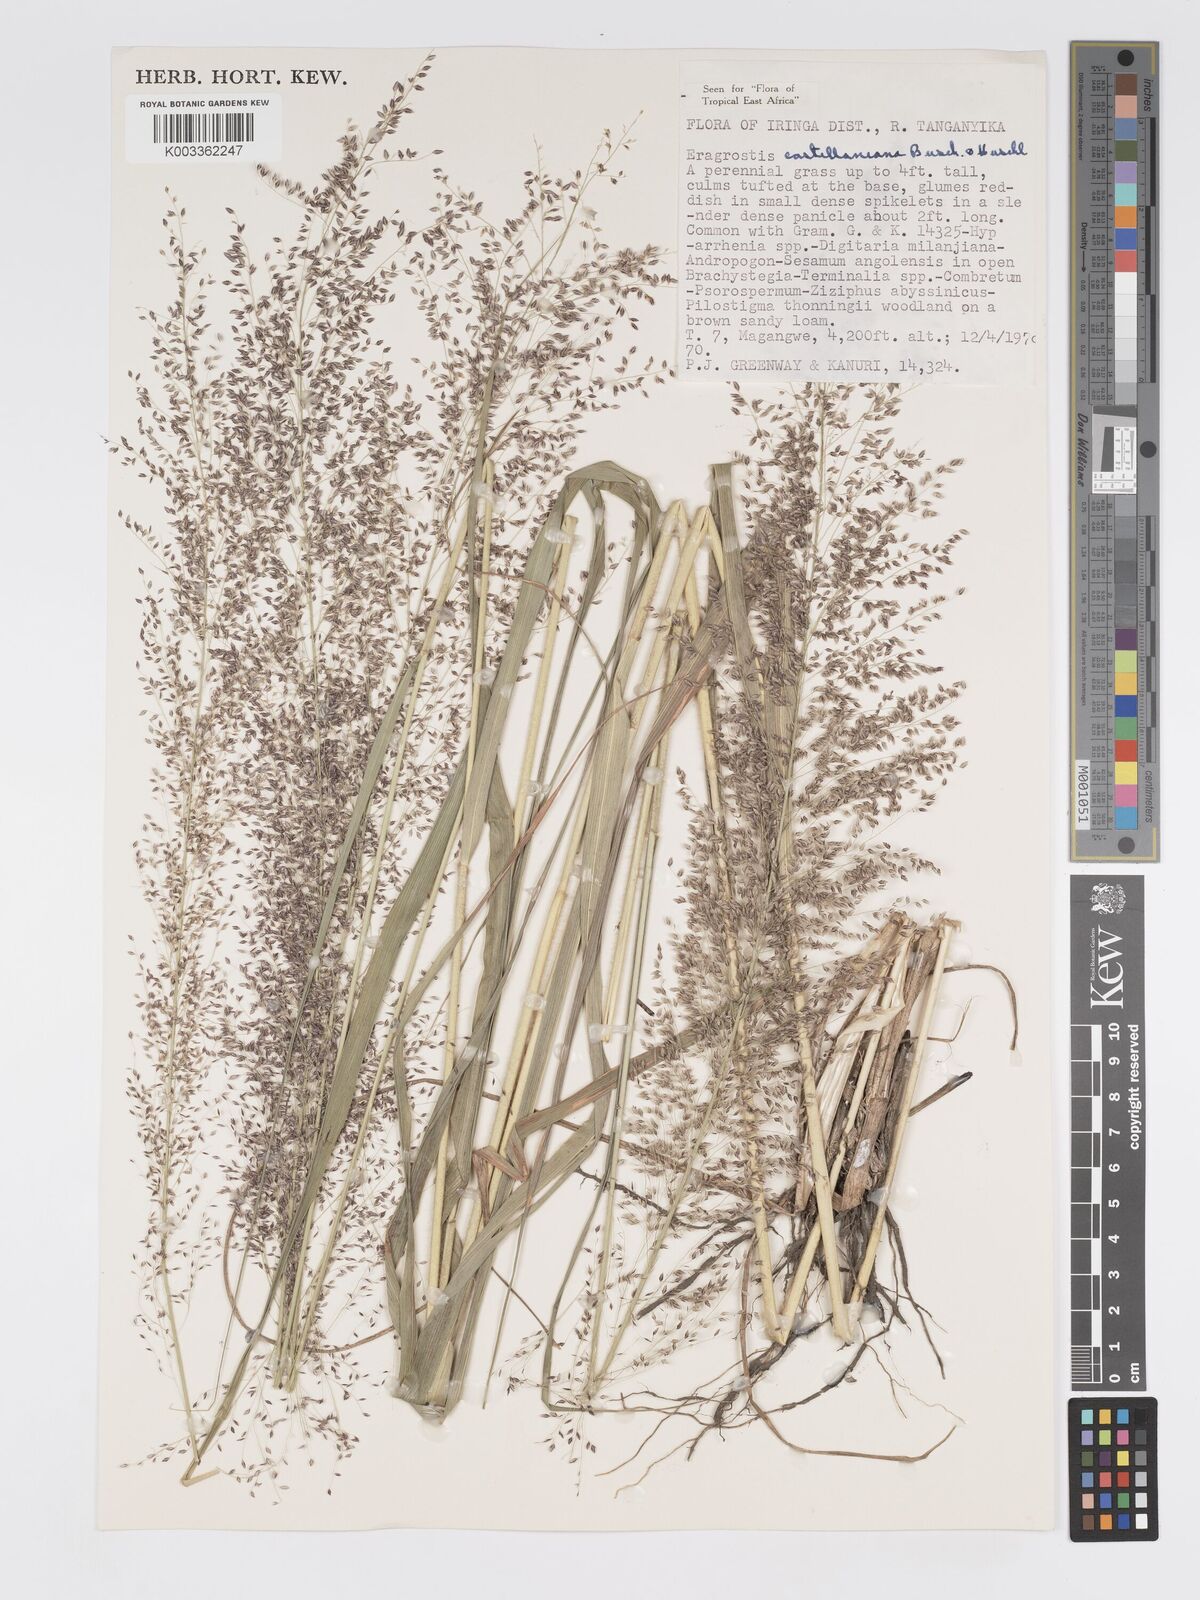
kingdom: Plantae
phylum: Tracheophyta
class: Liliopsida
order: Poales
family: Poaceae
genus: Eragrostis
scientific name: Eragrostis castellaneana
